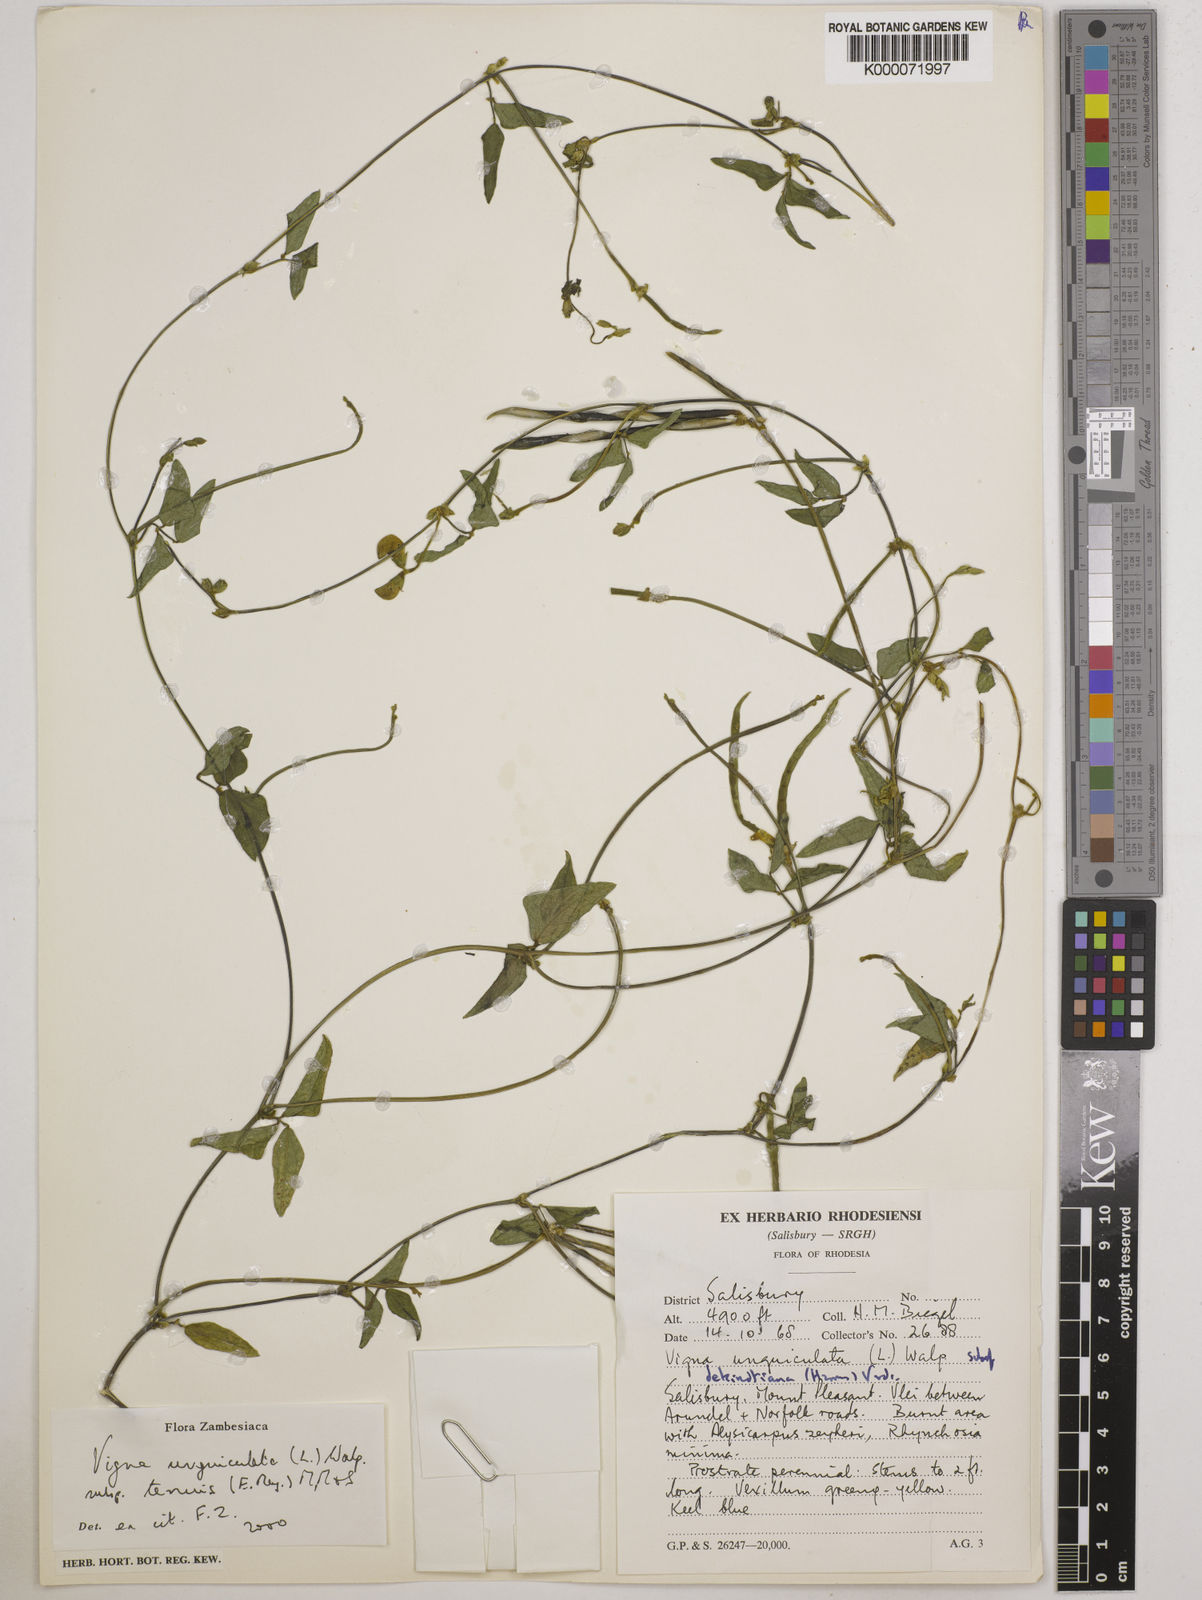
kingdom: Plantae
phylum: Tracheophyta
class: Magnoliopsida
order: Fabales
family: Fabaceae
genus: Vigna
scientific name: Vigna unguiculata
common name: Cowpea
